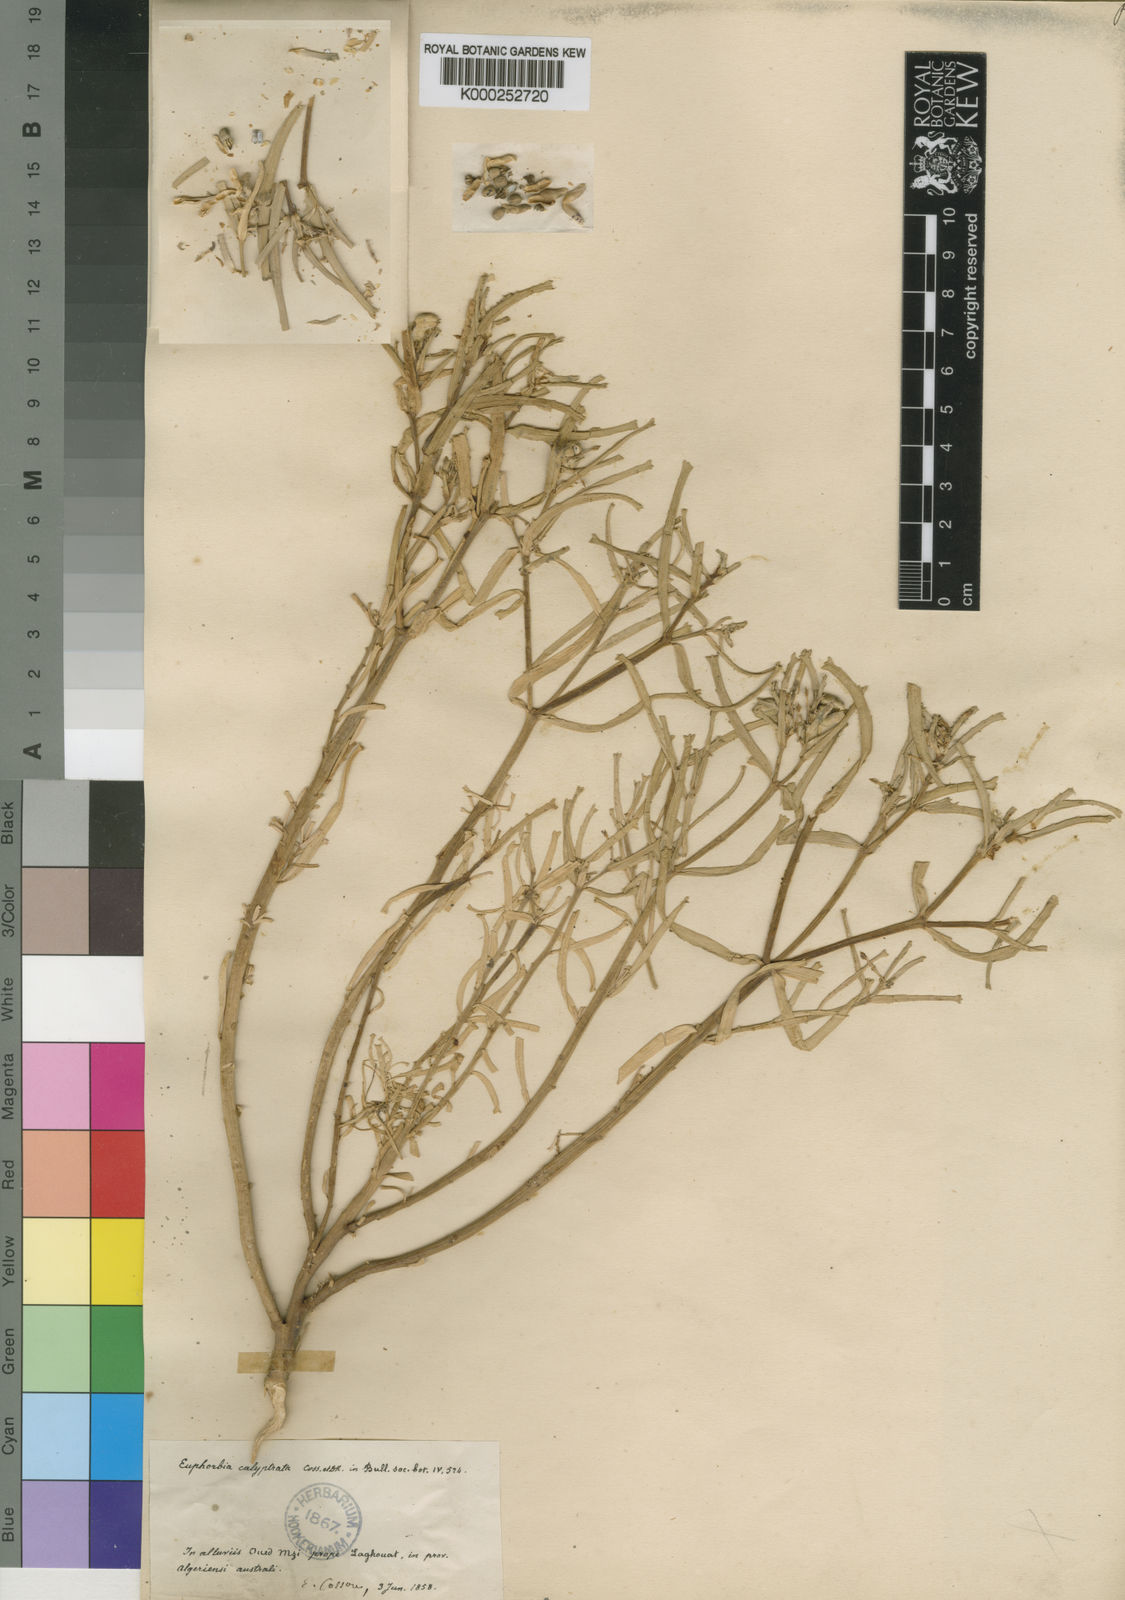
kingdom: Plantae
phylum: Tracheophyta
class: Magnoliopsida
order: Malpighiales
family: Euphorbiaceae
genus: Euphorbia
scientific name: Euphorbia calyptrata
